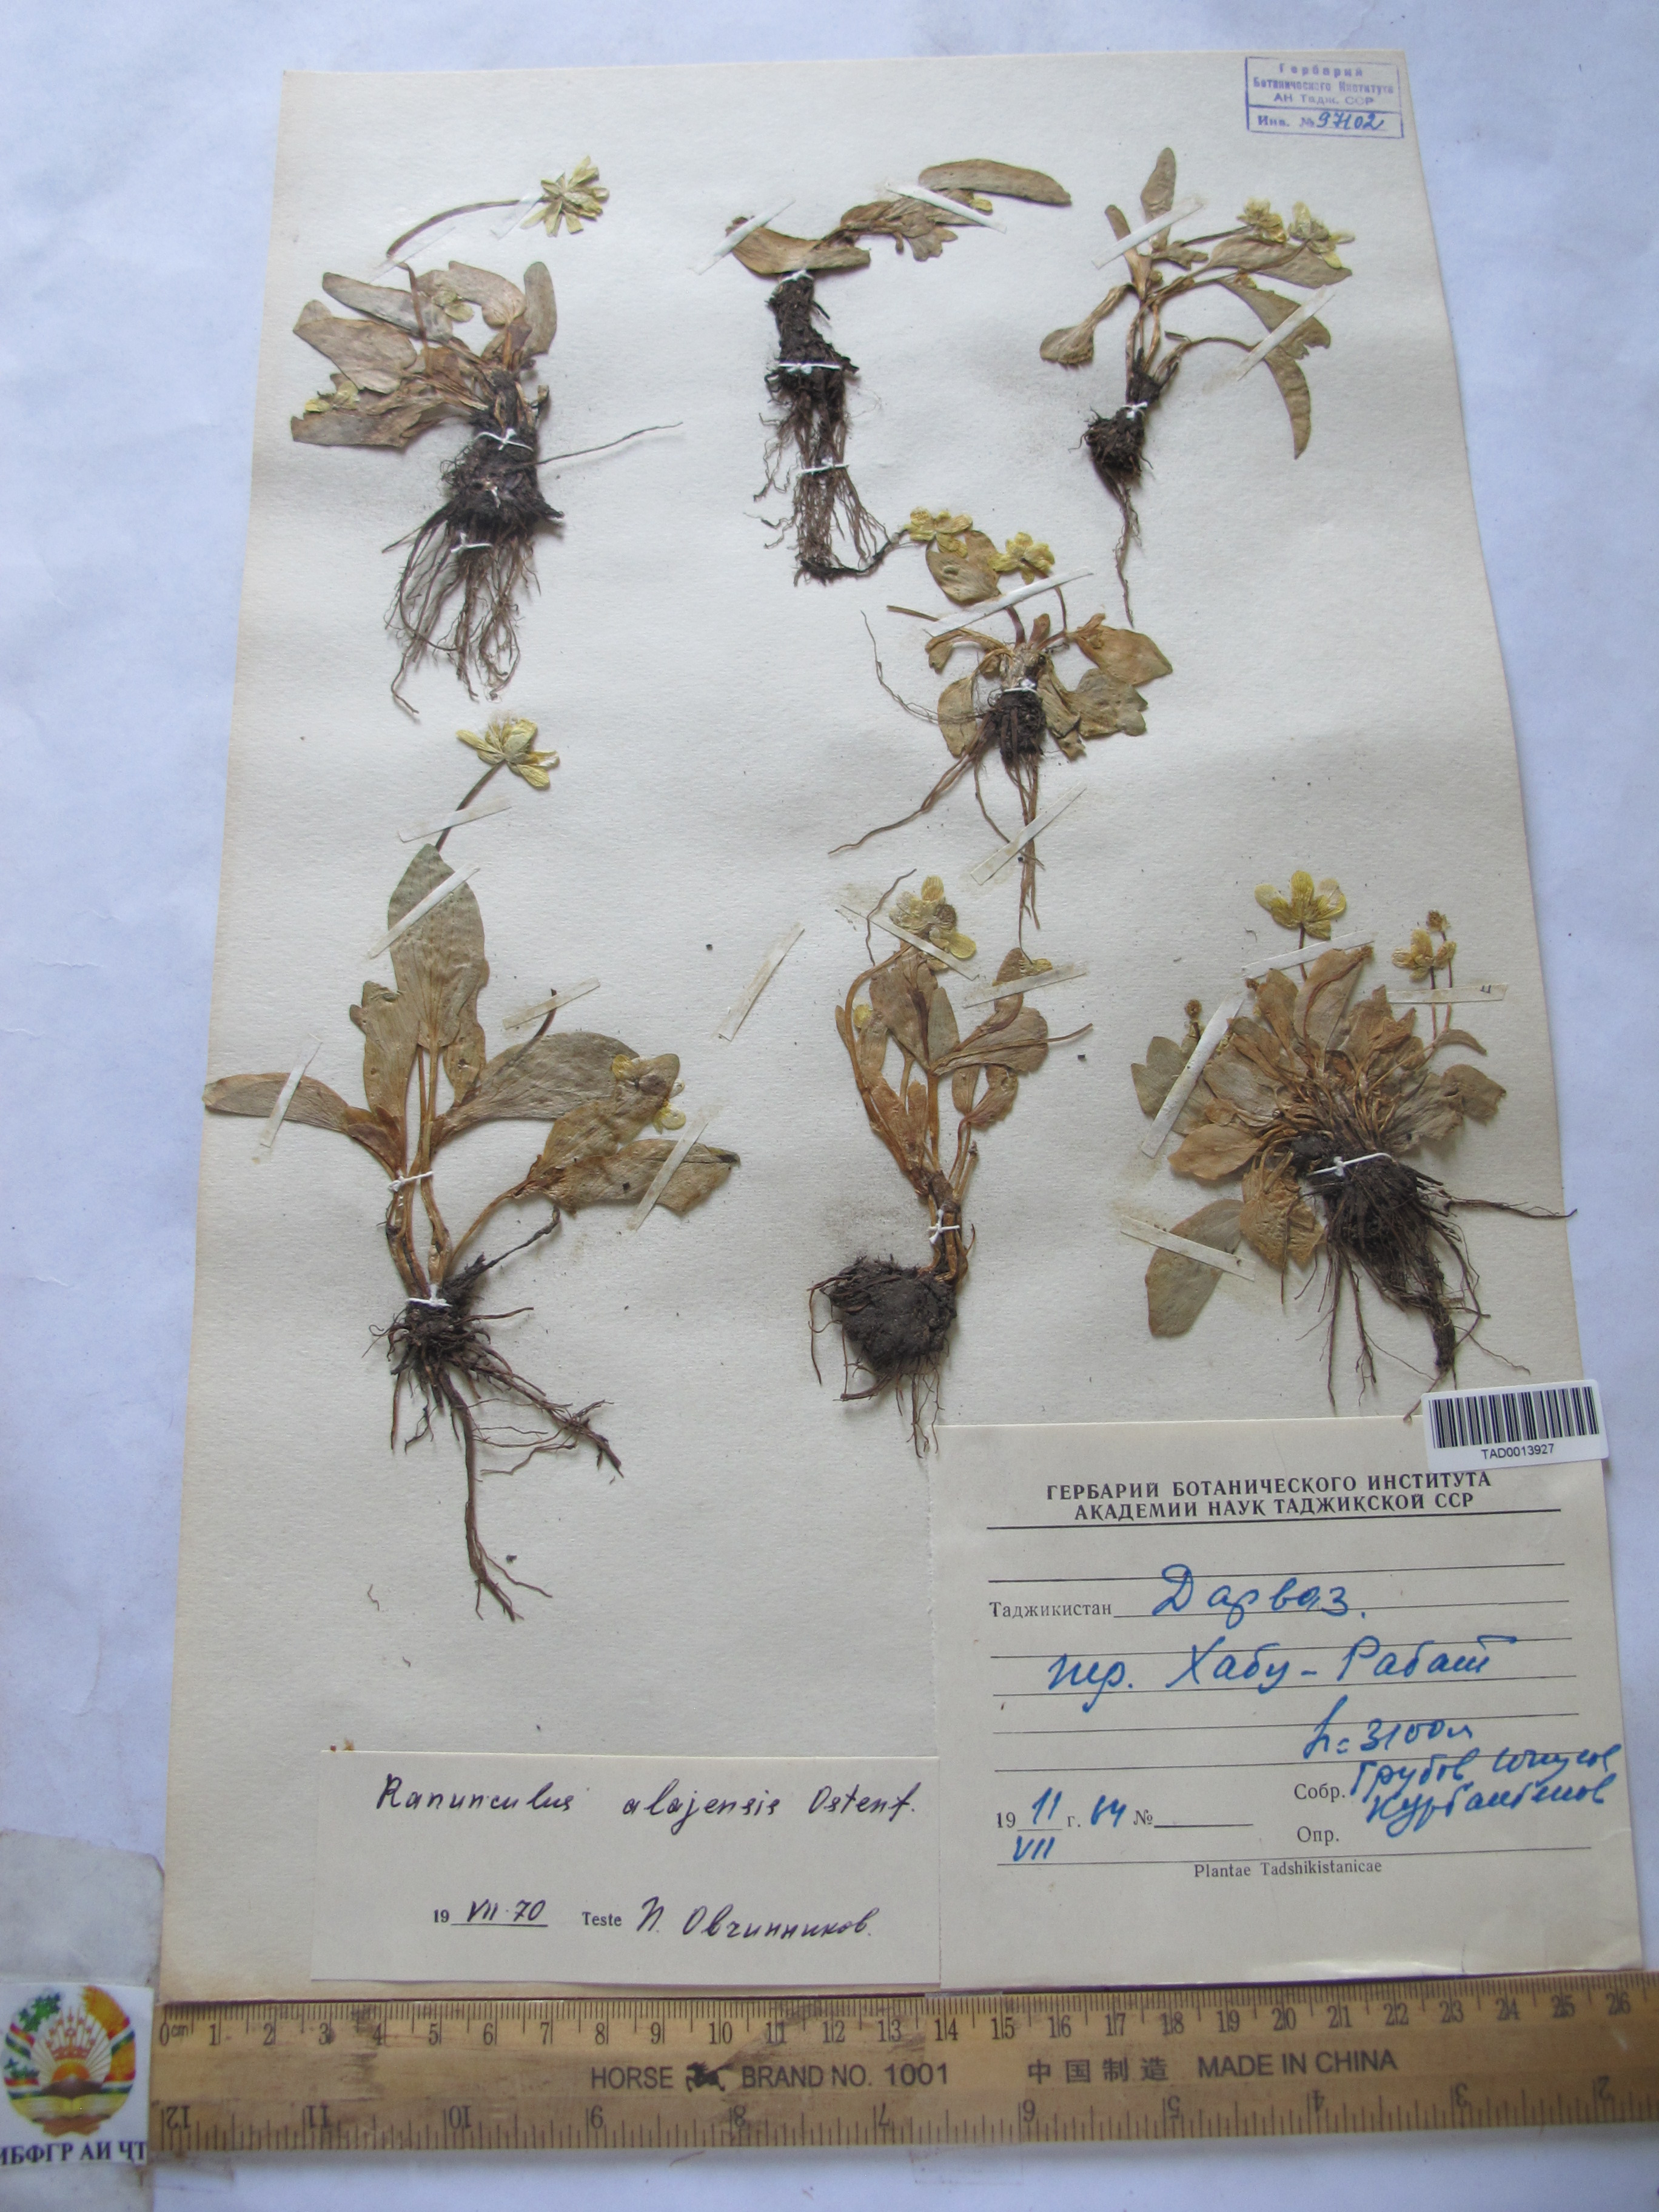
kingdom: Plantae
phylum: Tracheophyta
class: Magnoliopsida
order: Ranunculales
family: Ranunculaceae
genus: Ranunculus
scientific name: Ranunculus alaiensis
